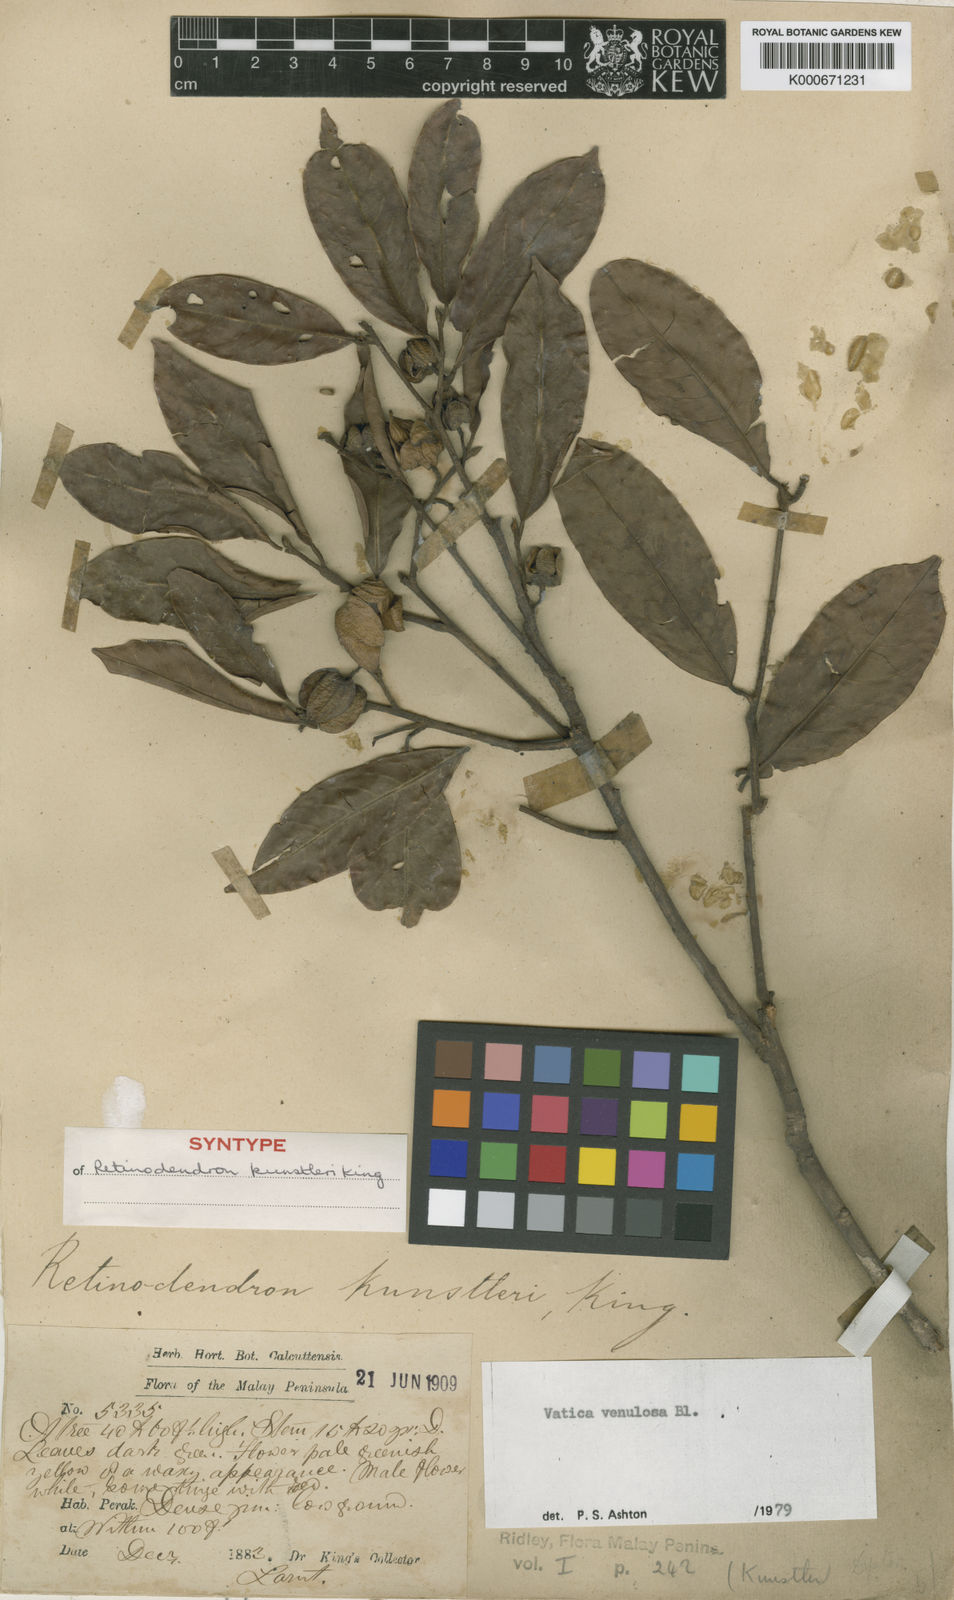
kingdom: Plantae
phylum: Tracheophyta
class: Magnoliopsida
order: Malvales
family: Dipterocarpaceae
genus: Vatica
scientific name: Vatica venulosa
